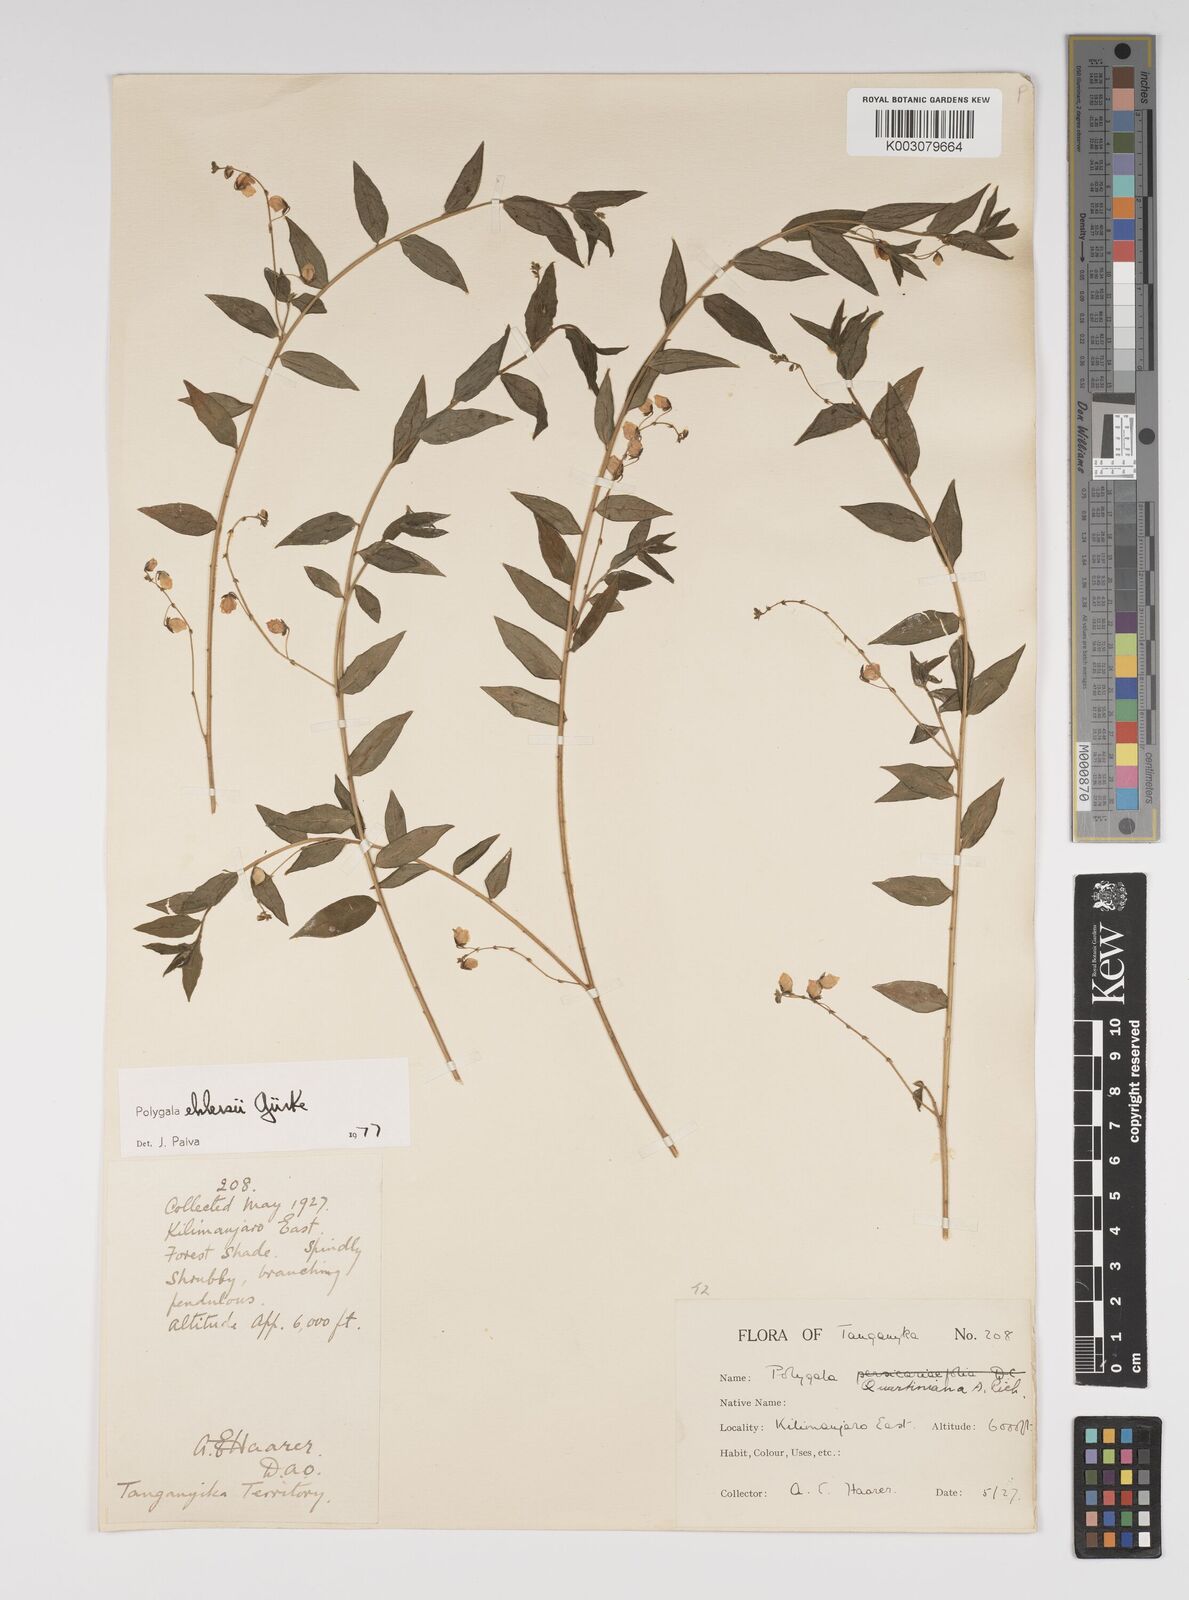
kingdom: Plantae
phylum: Tracheophyta
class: Magnoliopsida
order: Fabales
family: Polygalaceae
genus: Polygala
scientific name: Polygala ehlersii
